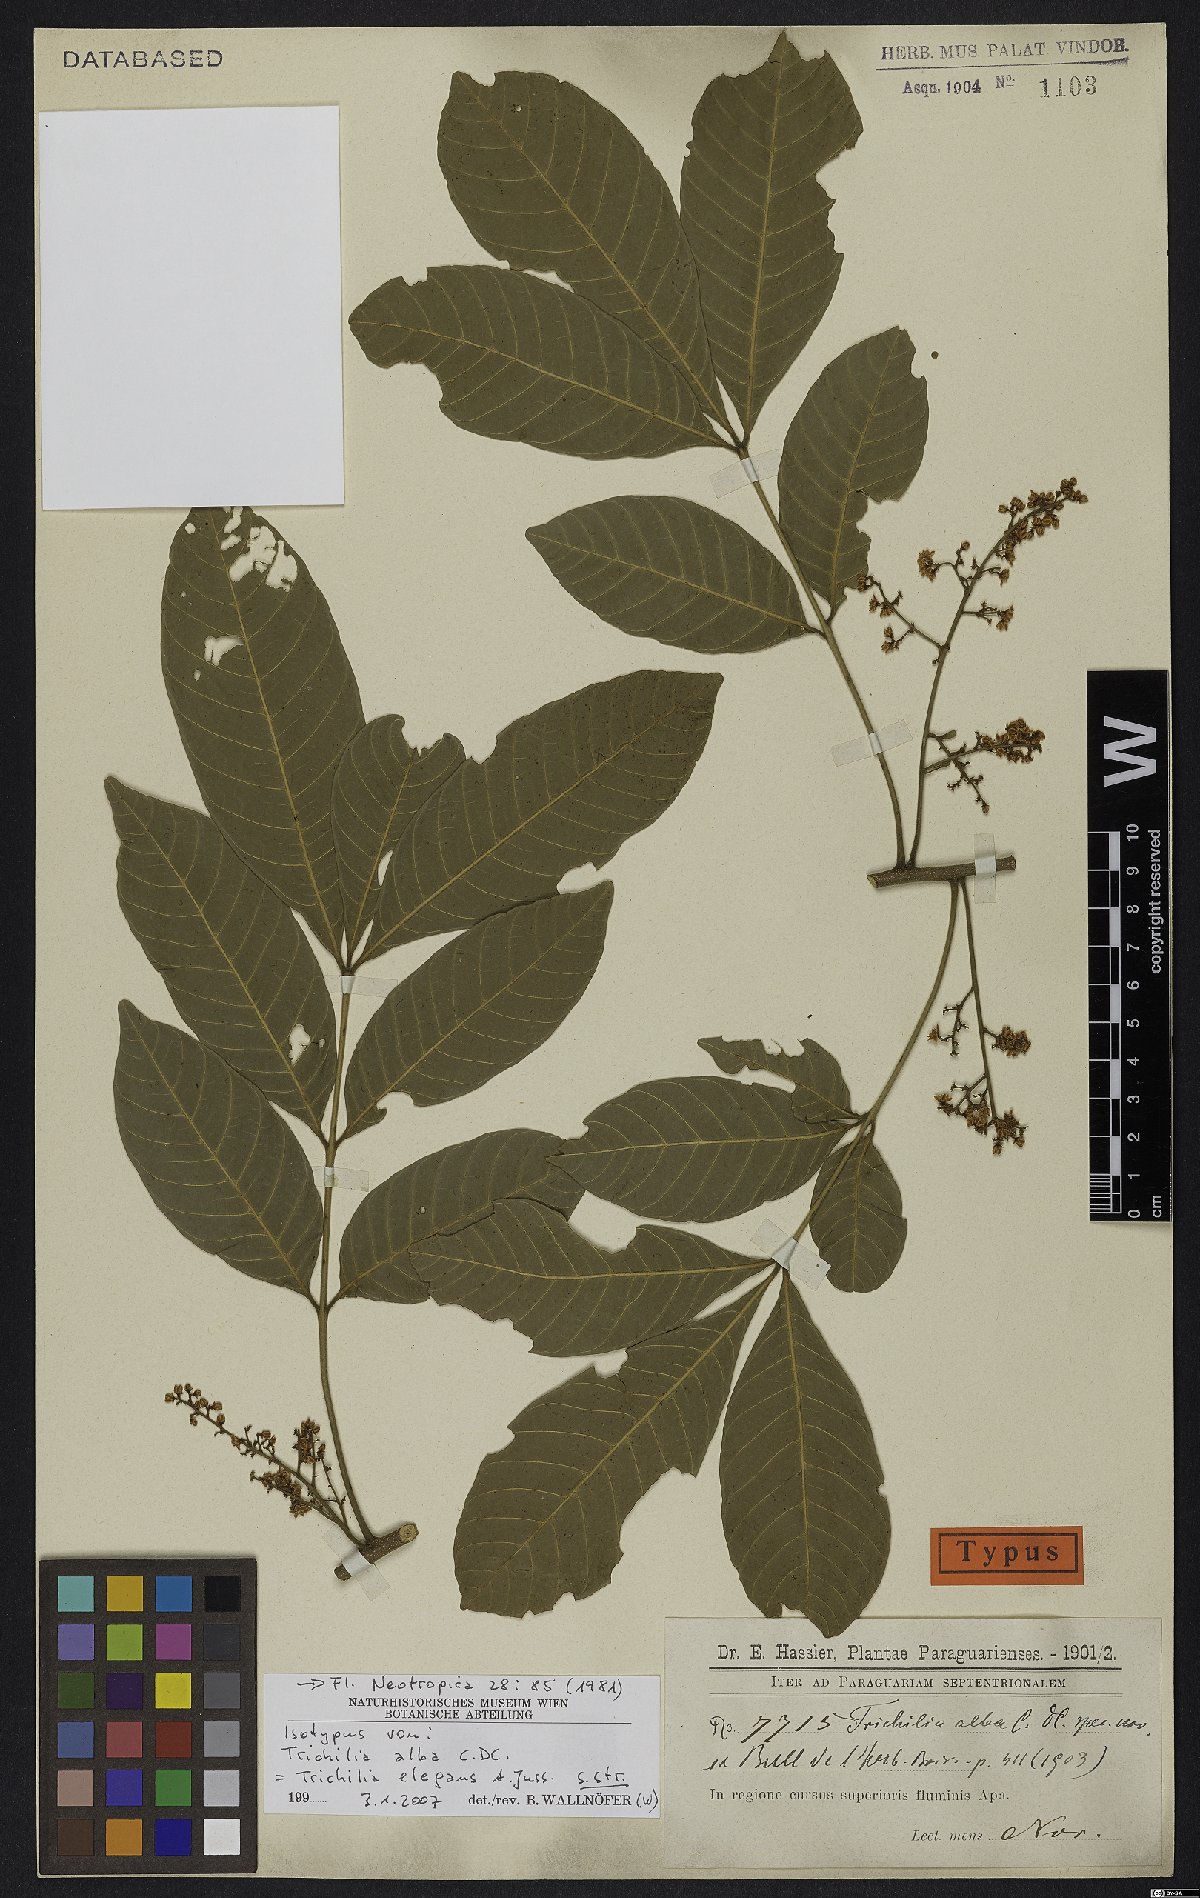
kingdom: Plantae
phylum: Tracheophyta
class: Magnoliopsida
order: Sapindales
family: Meliaceae
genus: Trichilia
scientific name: Trichilia elegans
